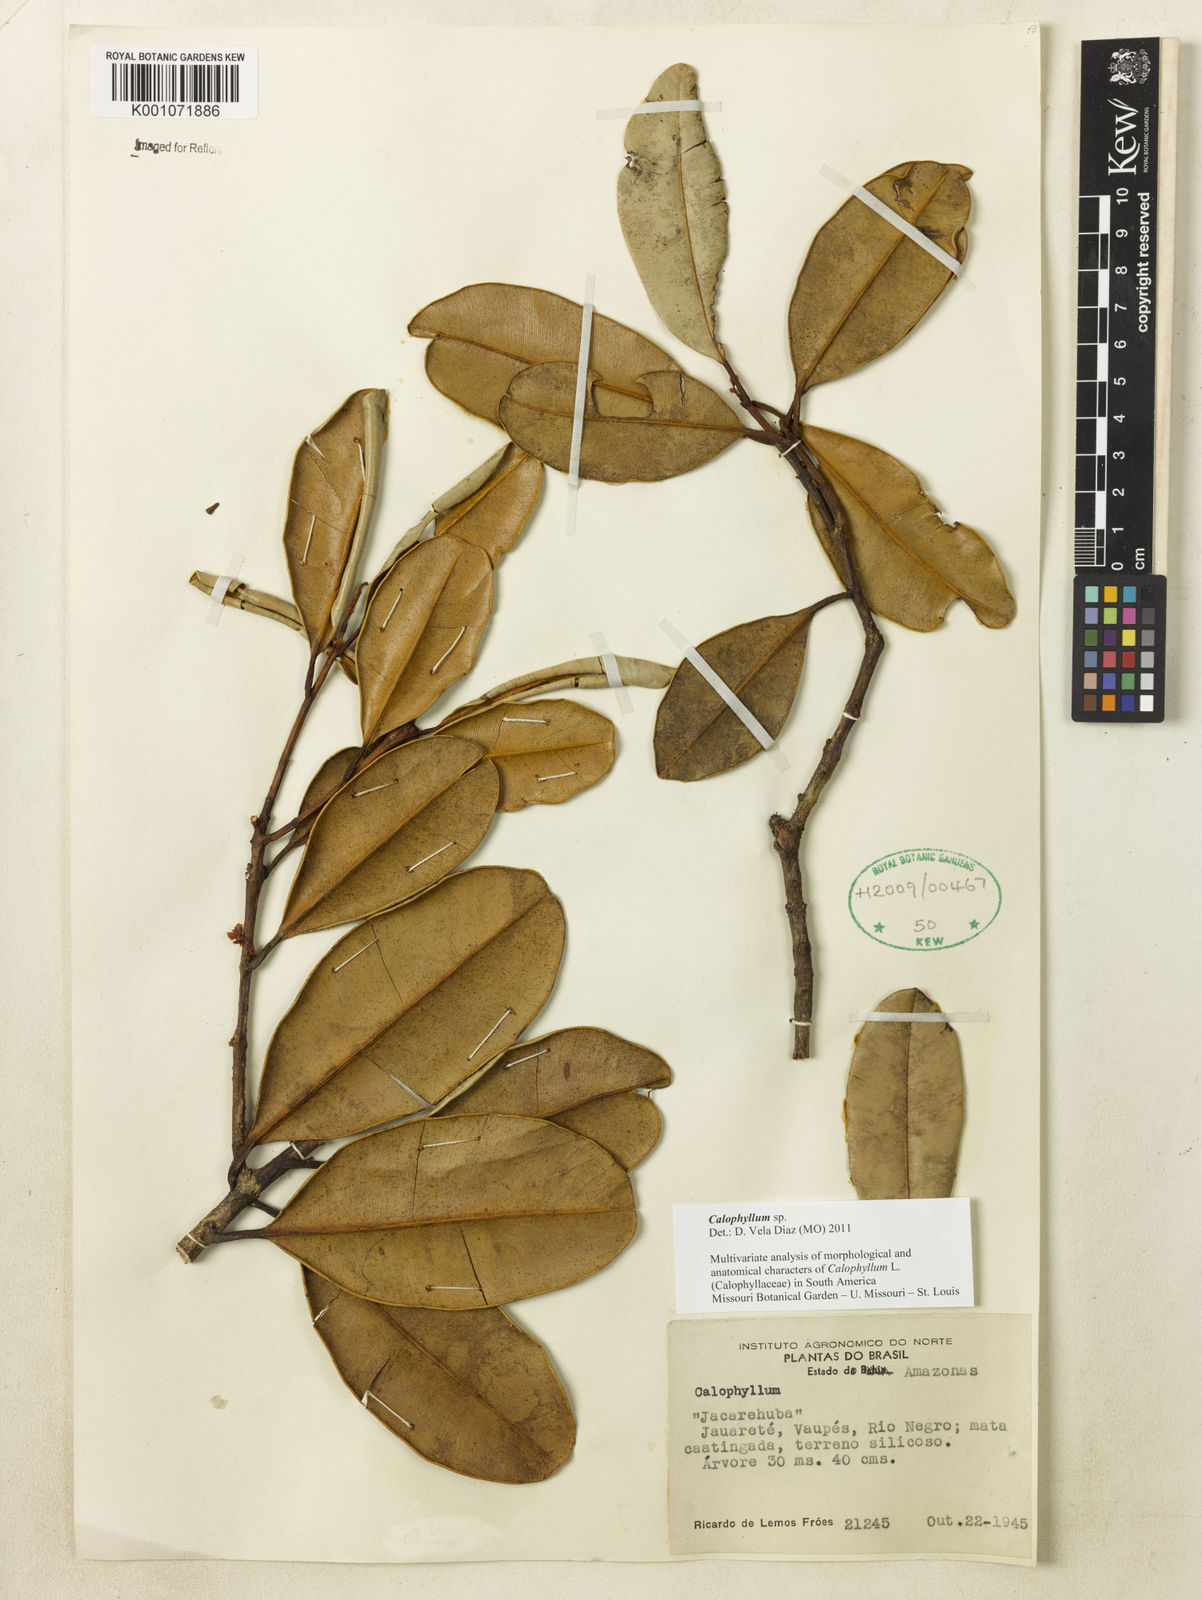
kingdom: Plantae
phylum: Tracheophyta
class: Magnoliopsida
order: Malpighiales
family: Calophyllaceae
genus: Calophyllum
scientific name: Calophyllum
